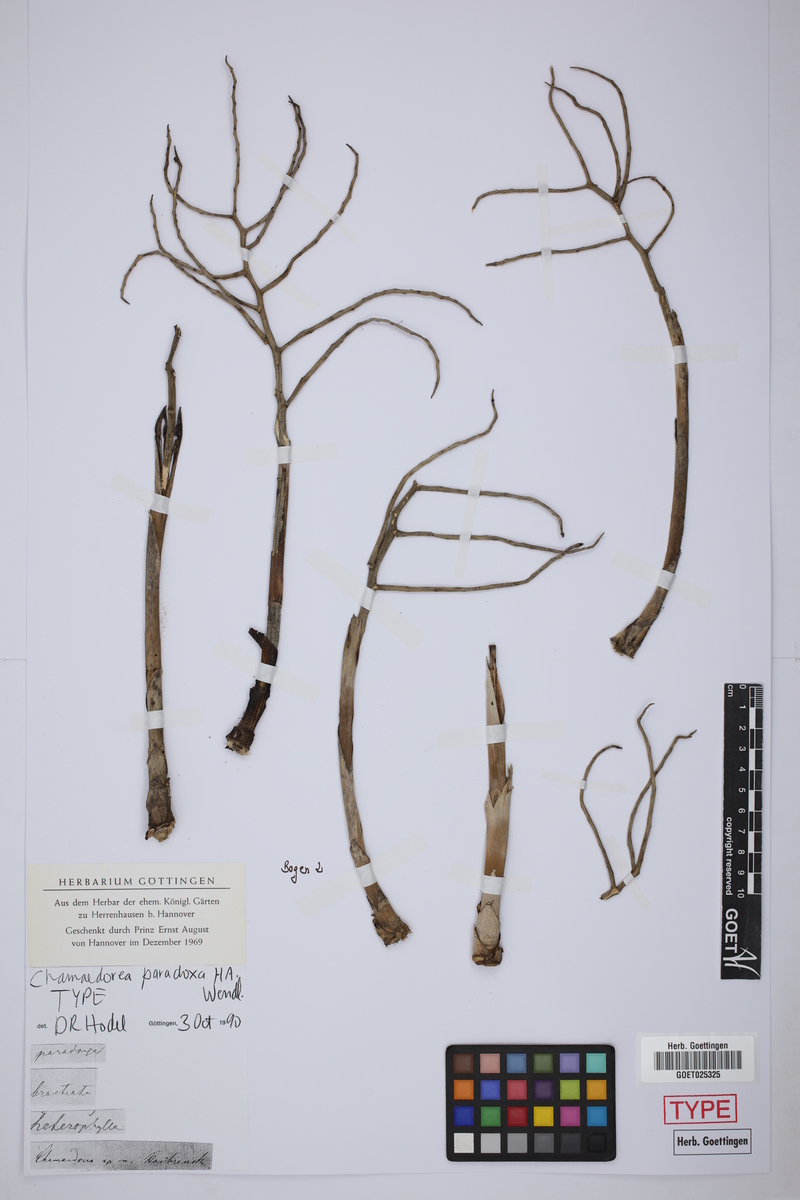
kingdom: Plantae
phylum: Tracheophyta
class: Liliopsida
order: Arecales
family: Arecaceae
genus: Chamaedorea
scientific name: Chamaedorea oblongata
